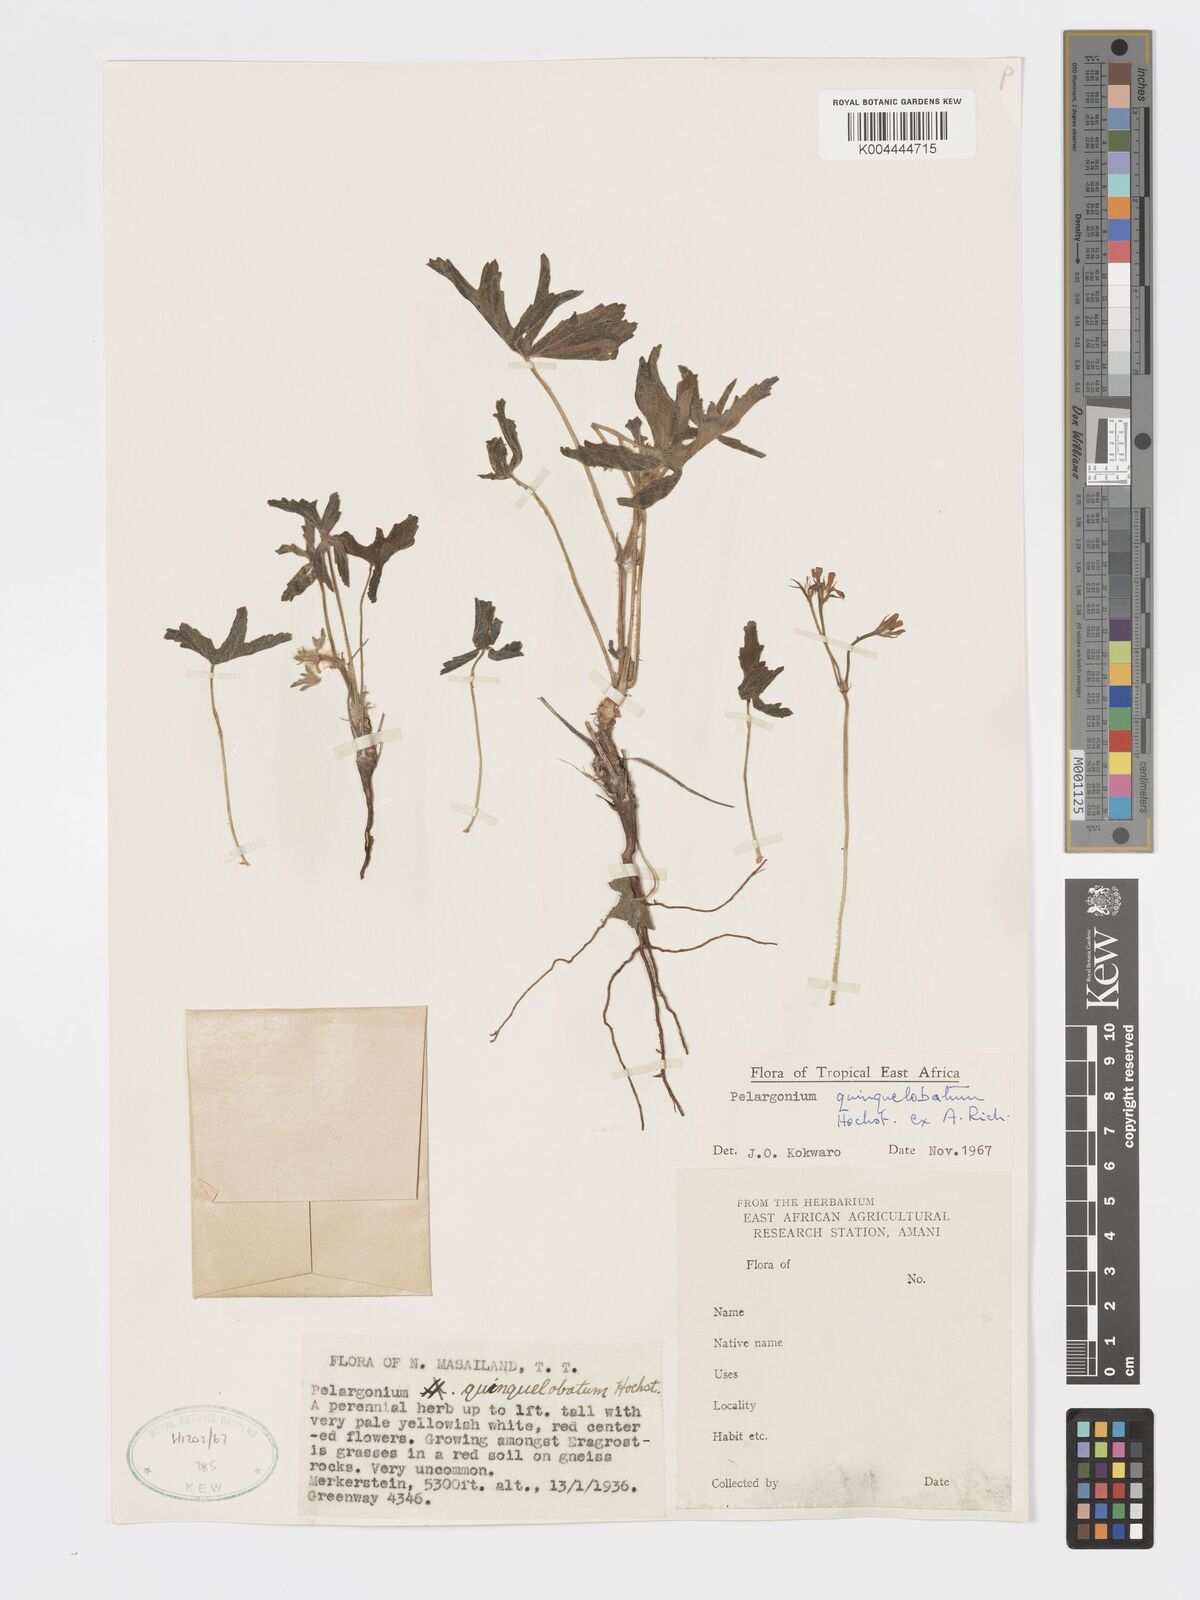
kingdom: Plantae
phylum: Tracheophyta
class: Magnoliopsida
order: Geraniales
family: Geraniaceae
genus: Pelargonium
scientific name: Pelargonium quinquelobatum
